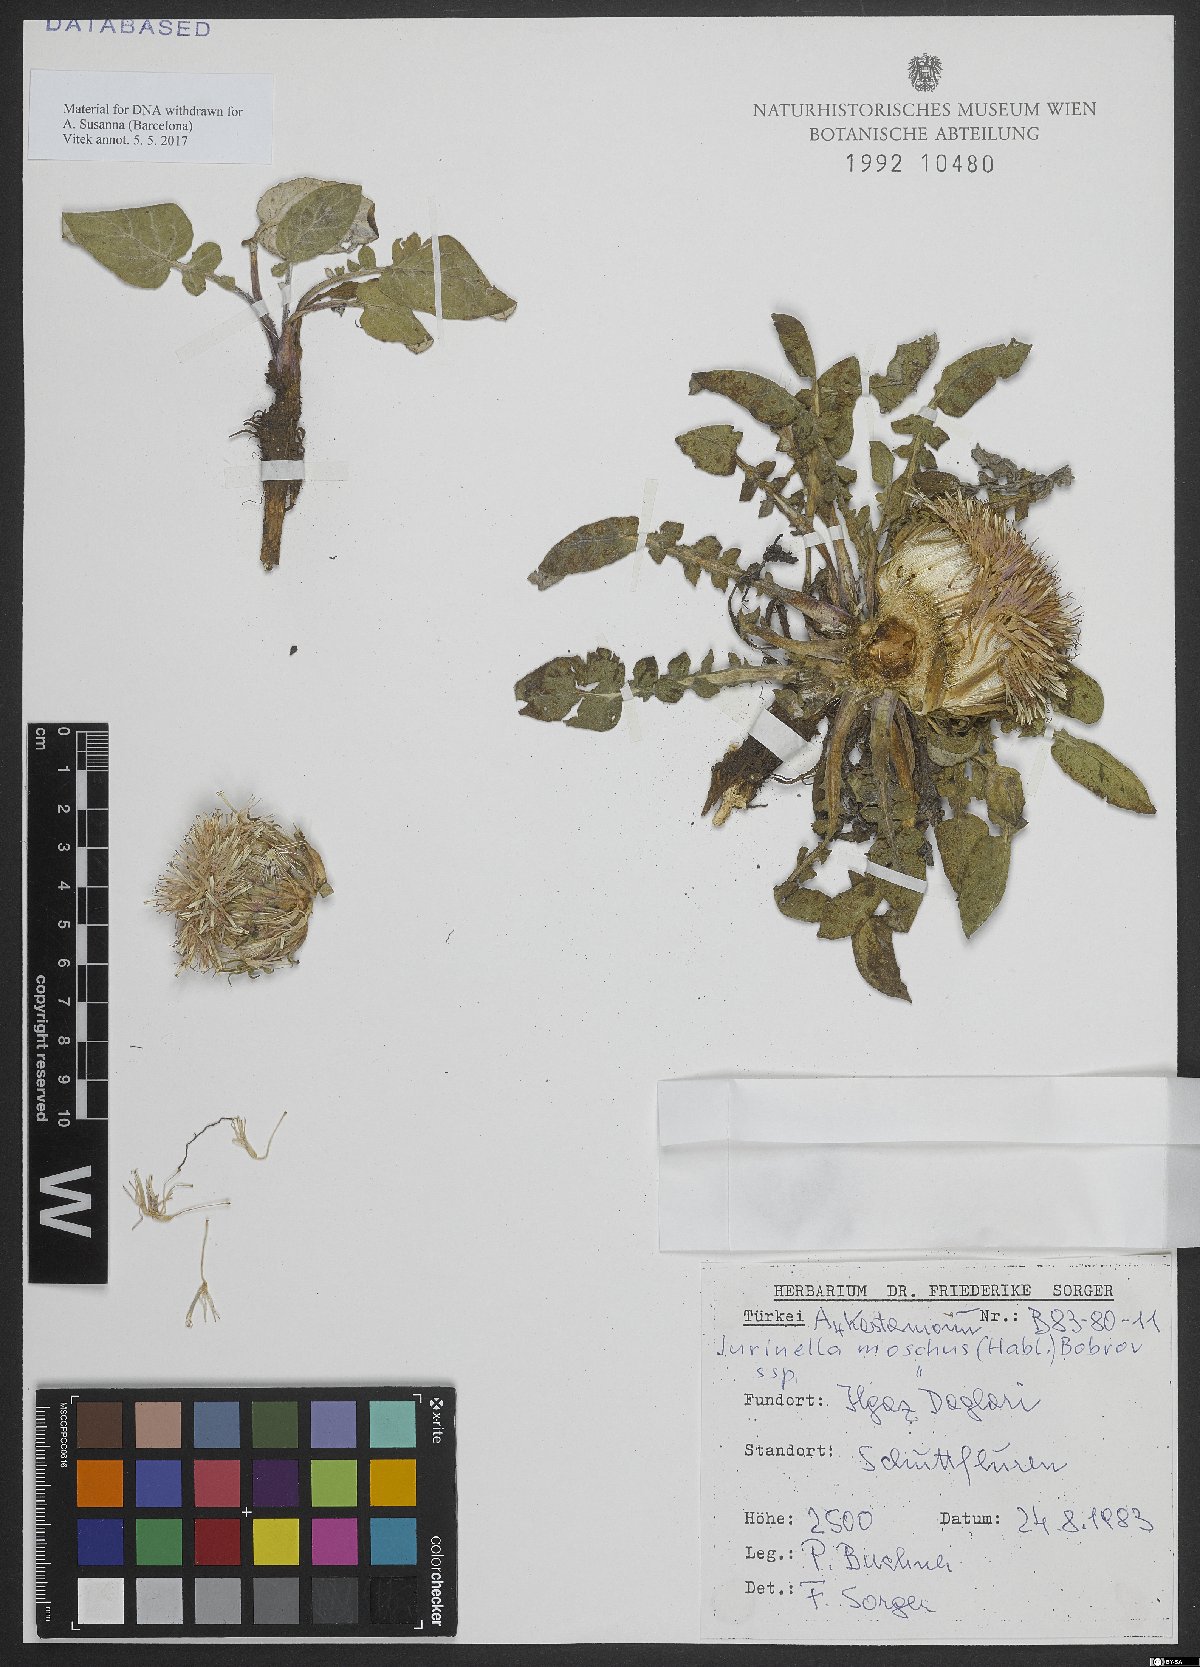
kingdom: Plantae
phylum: Tracheophyta
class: Magnoliopsida
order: Asterales
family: Asteraceae
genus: Jurinea
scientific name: Jurinea moschus
